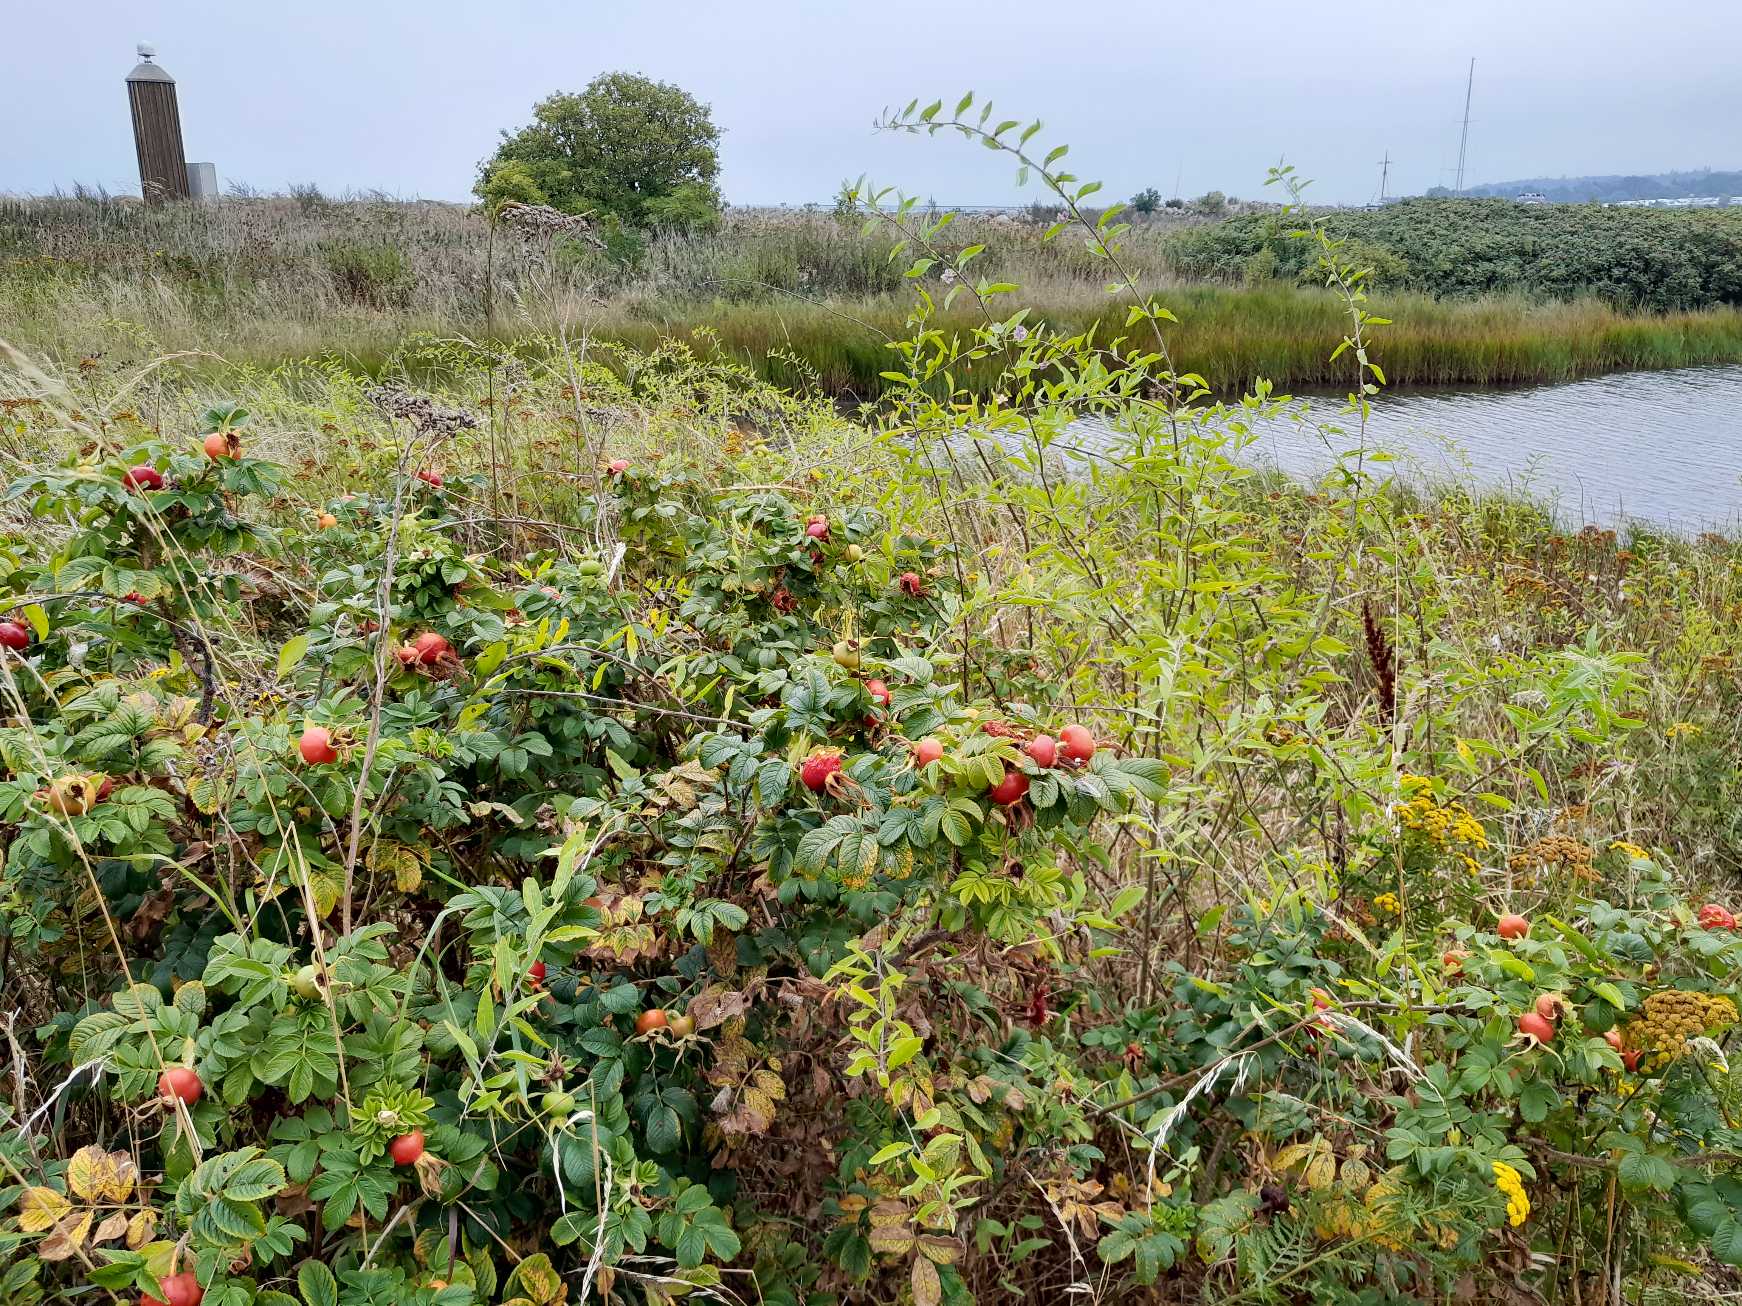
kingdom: Plantae
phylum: Tracheophyta
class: Magnoliopsida
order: Rosales
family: Rosaceae
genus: Rosa
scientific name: Rosa rugosa
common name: Rynket rose
